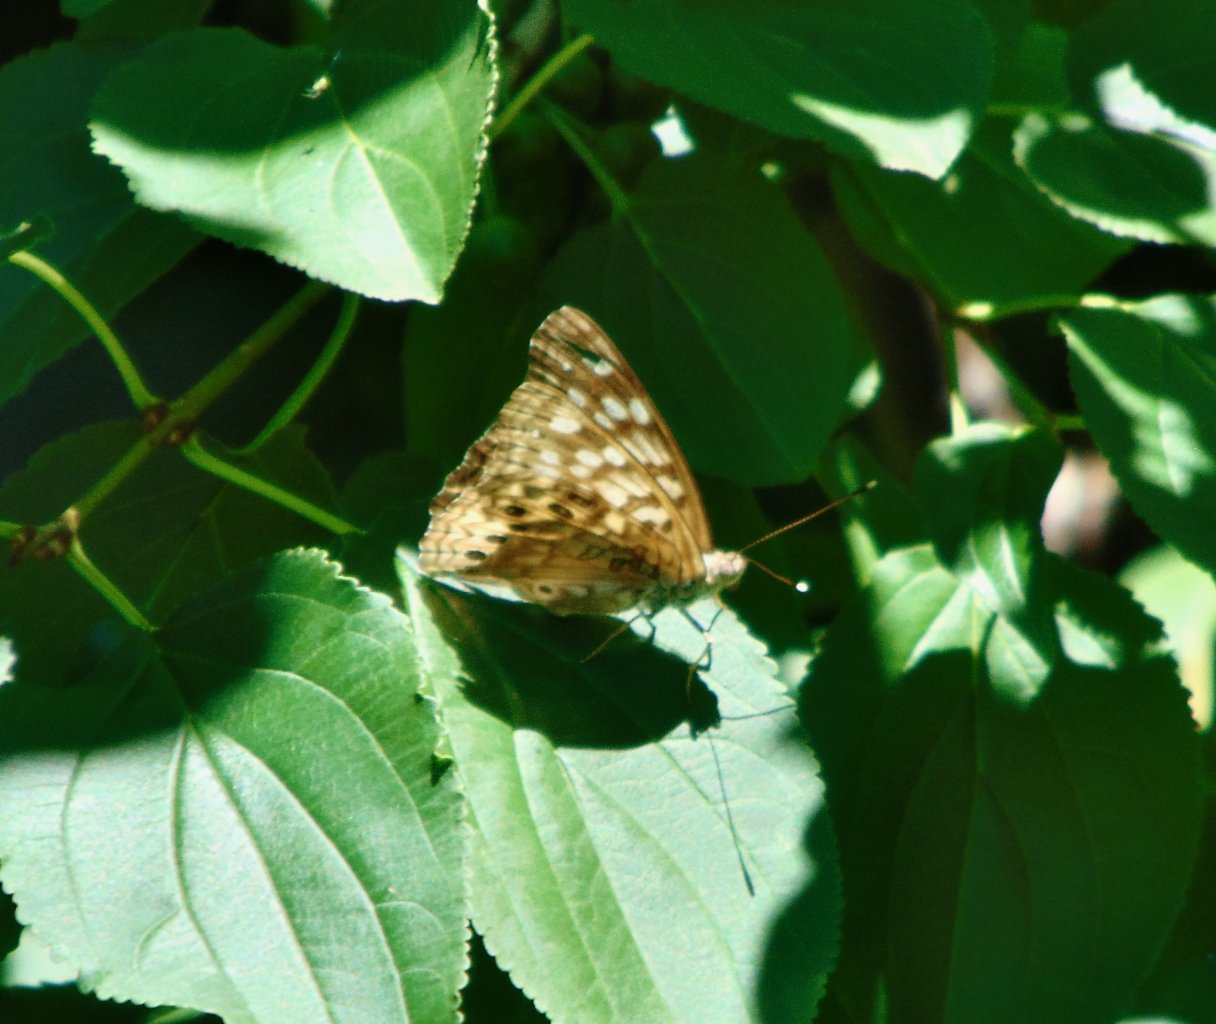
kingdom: Animalia
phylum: Arthropoda
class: Insecta
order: Lepidoptera
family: Nymphalidae
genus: Asterocampa
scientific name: Asterocampa celtis
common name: Hackberry Emperor
